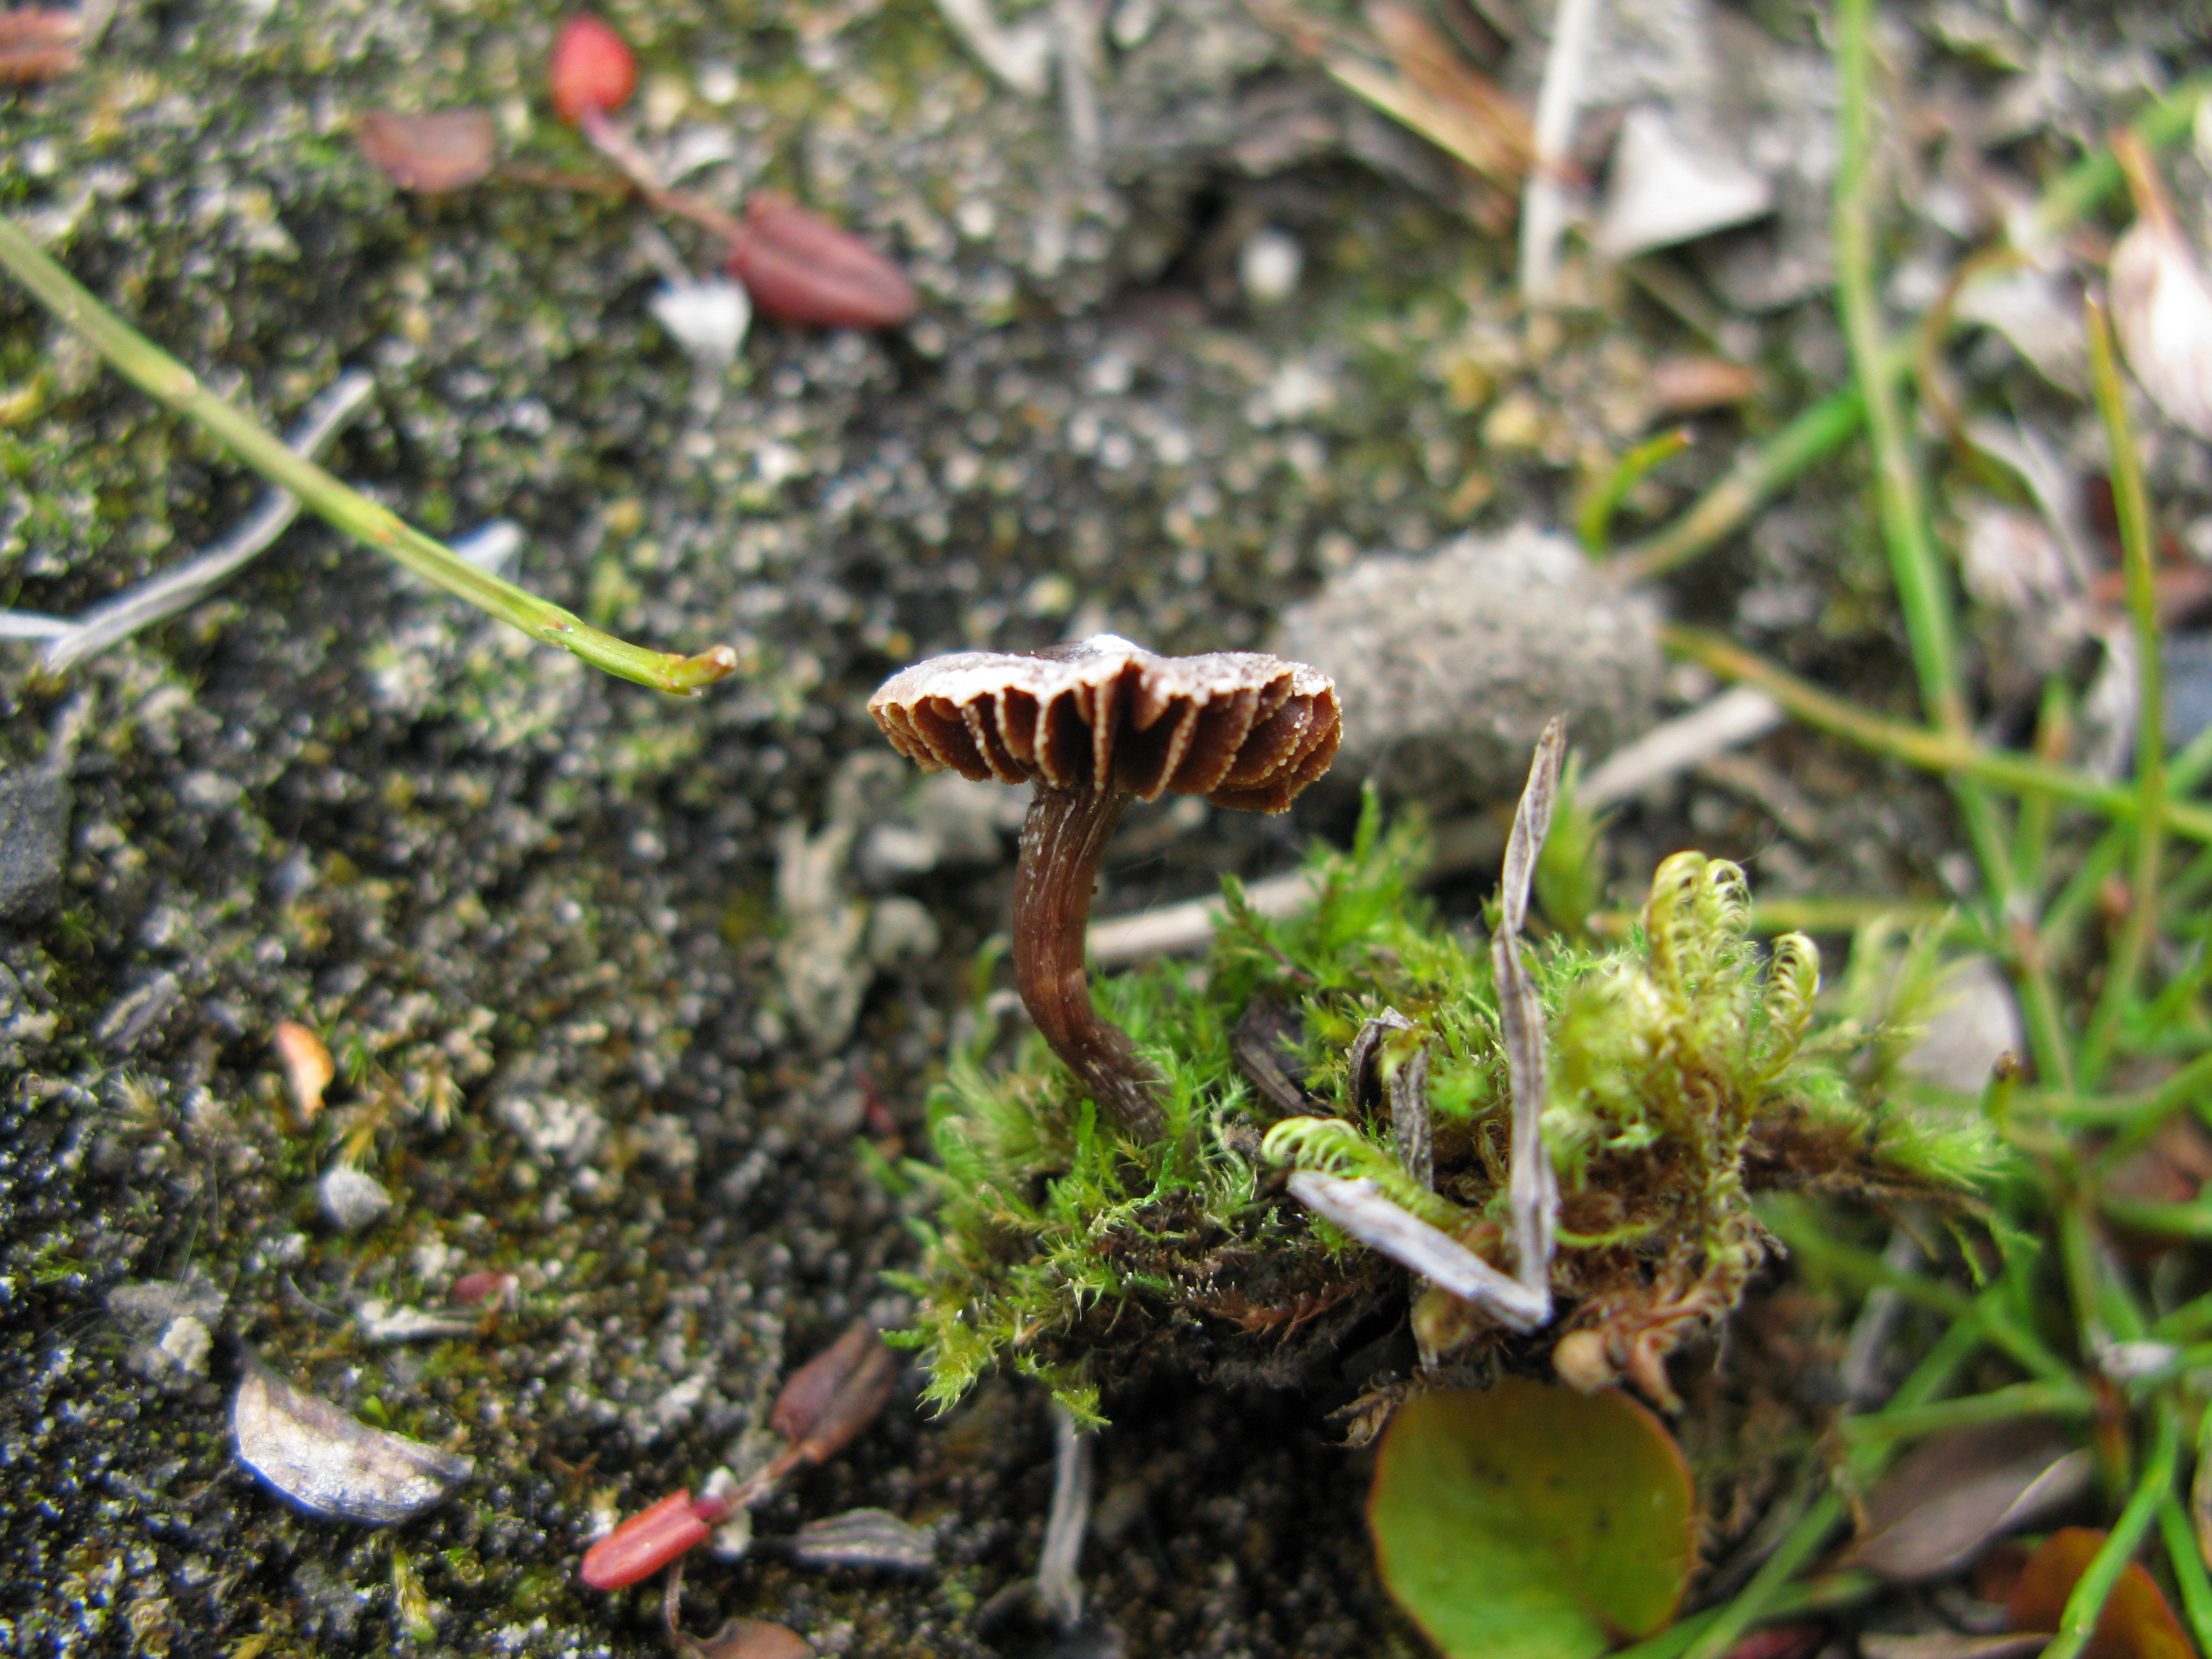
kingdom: Fungi
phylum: Basidiomycota
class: Agaricomycetes
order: Agaricales
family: Cortinariaceae
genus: Cortinarius
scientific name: Cortinarius pulchripes
